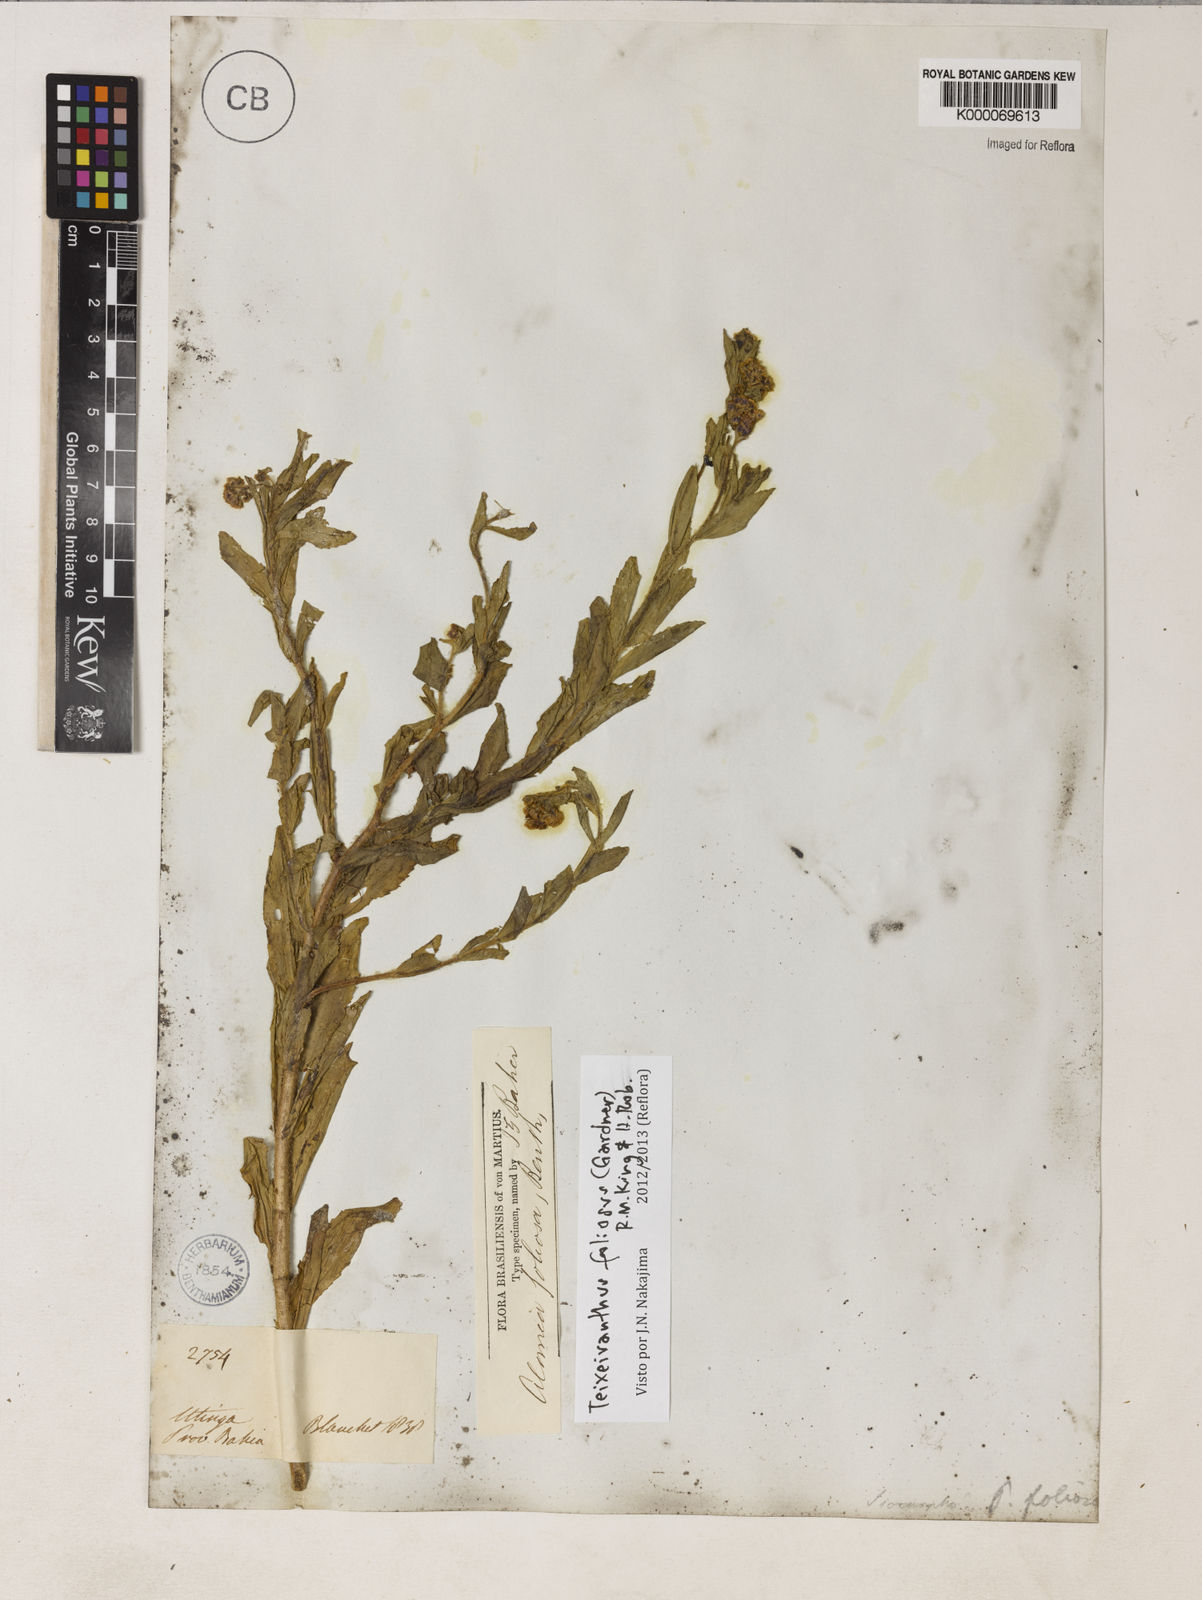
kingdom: Plantae
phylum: Tracheophyta
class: Magnoliopsida
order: Asterales
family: Asteraceae
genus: Teixeiranthus
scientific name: Teixeiranthus foliosus
